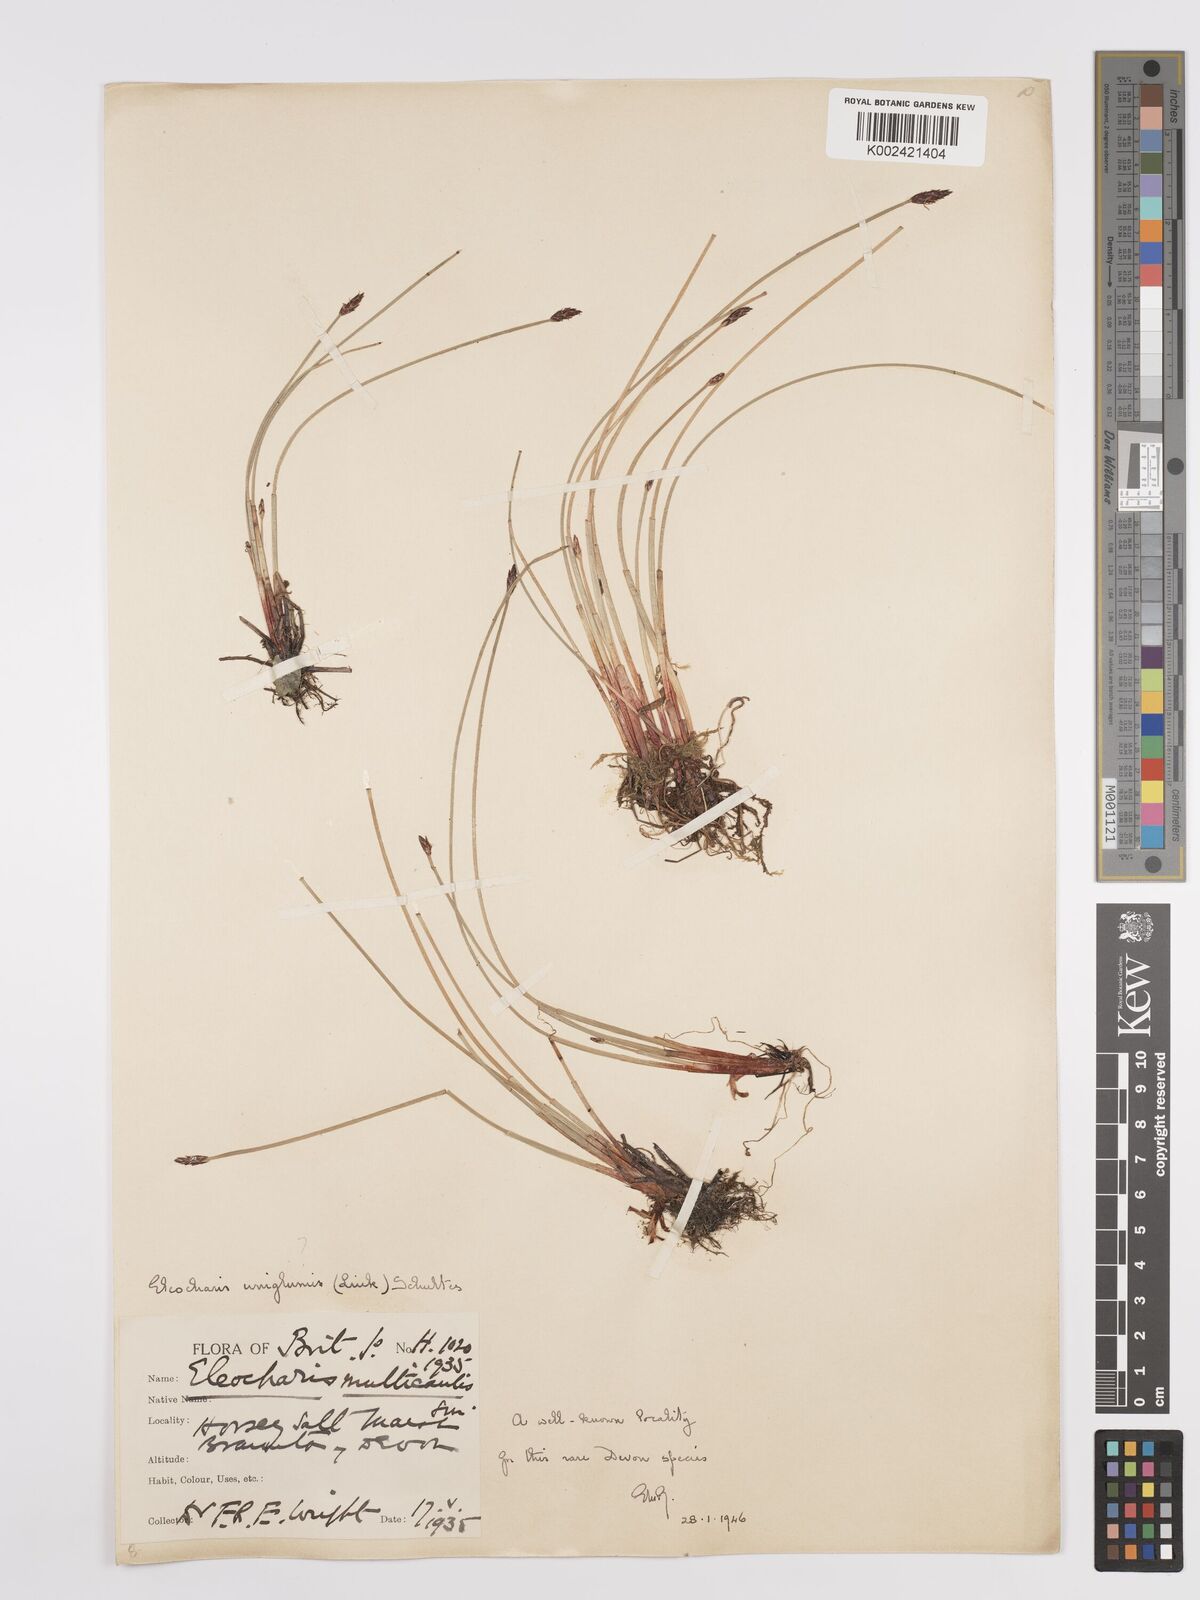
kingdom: Plantae
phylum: Tracheophyta
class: Liliopsida
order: Poales
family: Cyperaceae
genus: Eleocharis
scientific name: Eleocharis uniglumis
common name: Slender spike-rush
